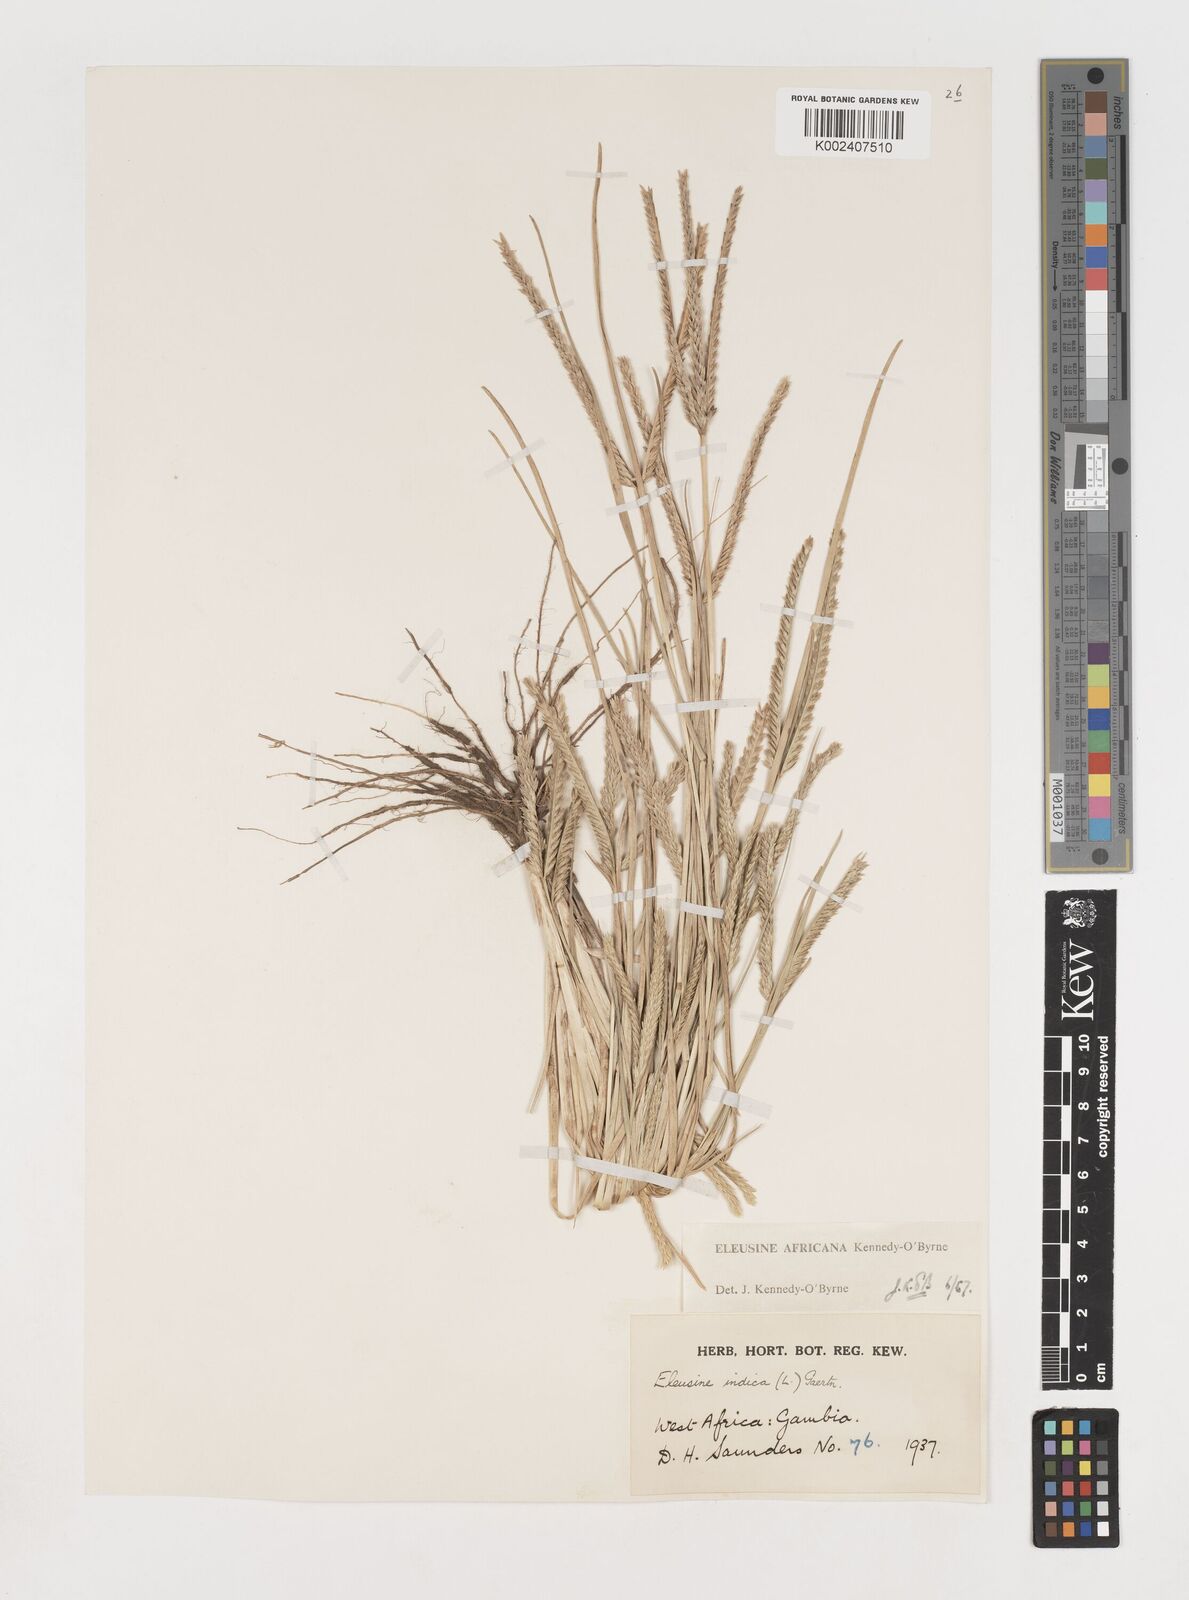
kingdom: Plantae
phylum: Tracheophyta
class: Liliopsida
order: Poales
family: Poaceae
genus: Eleusine
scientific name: Eleusine africana
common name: Wild african finger millet
